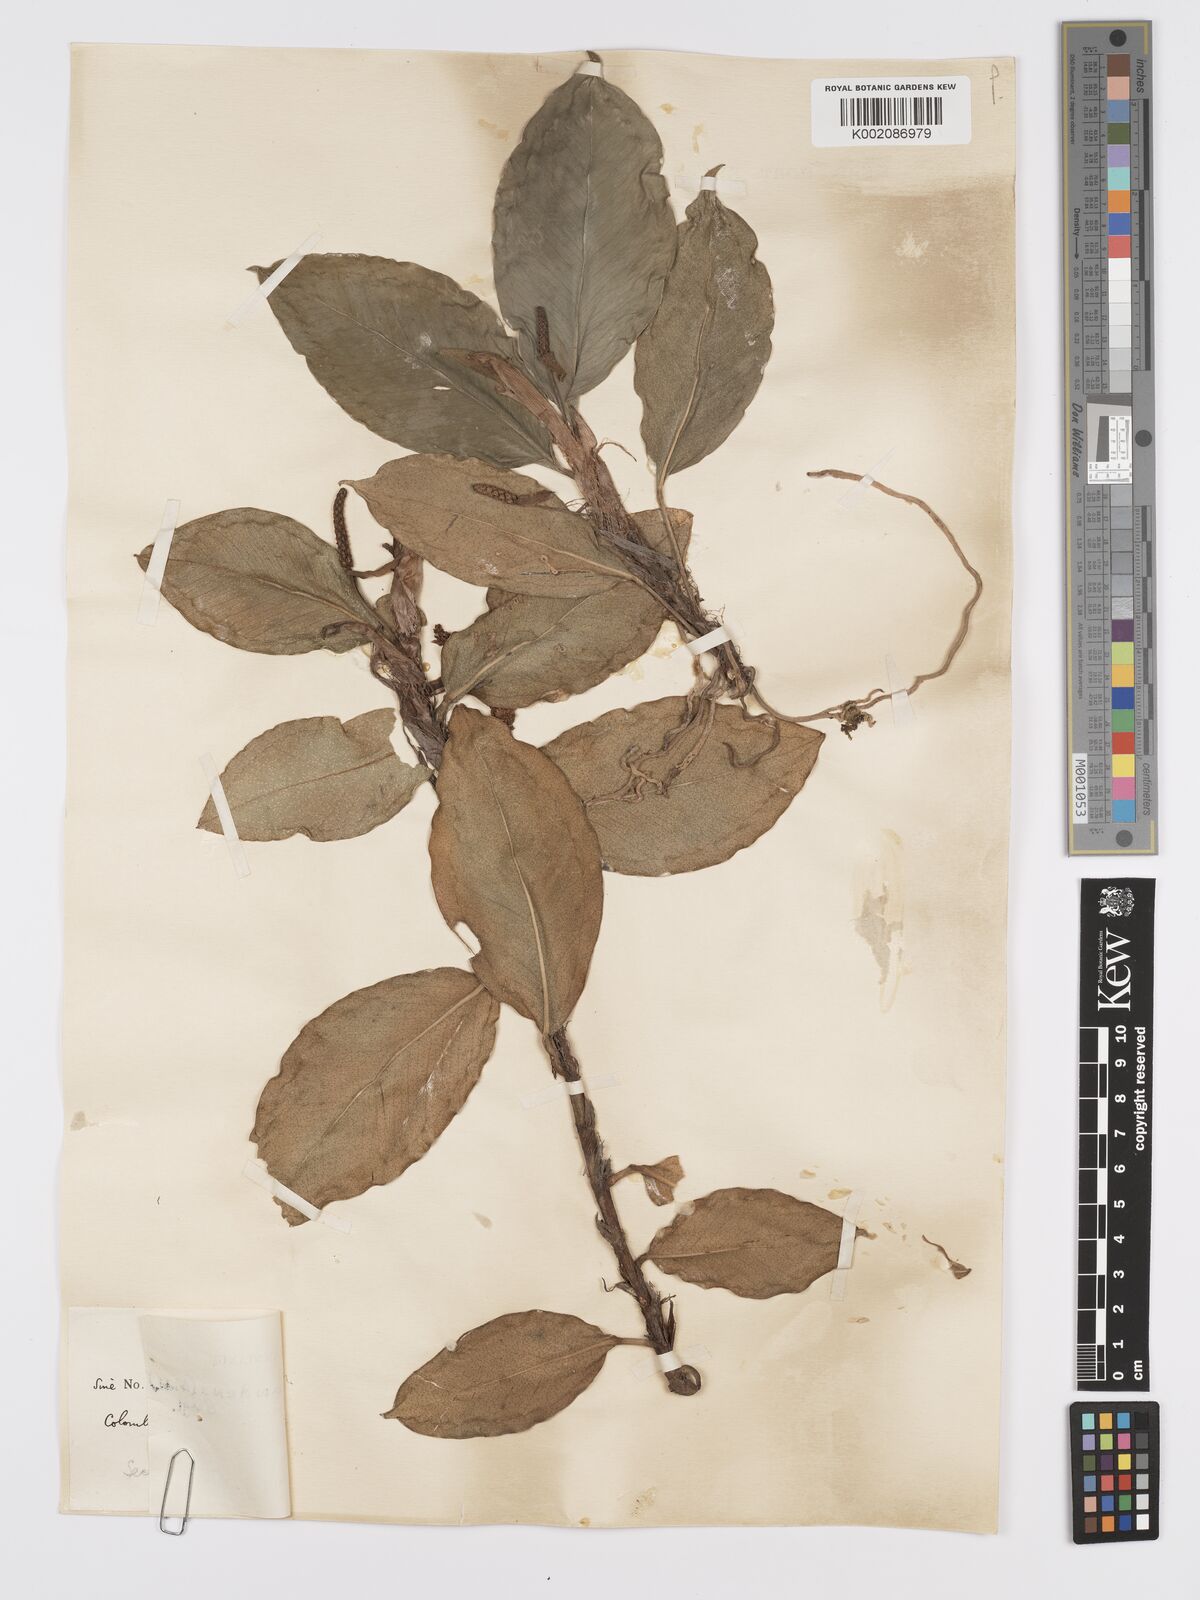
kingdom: Plantae
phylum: Tracheophyta
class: Liliopsida
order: Alismatales
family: Araceae
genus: Anthurium
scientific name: Anthurium scandens
